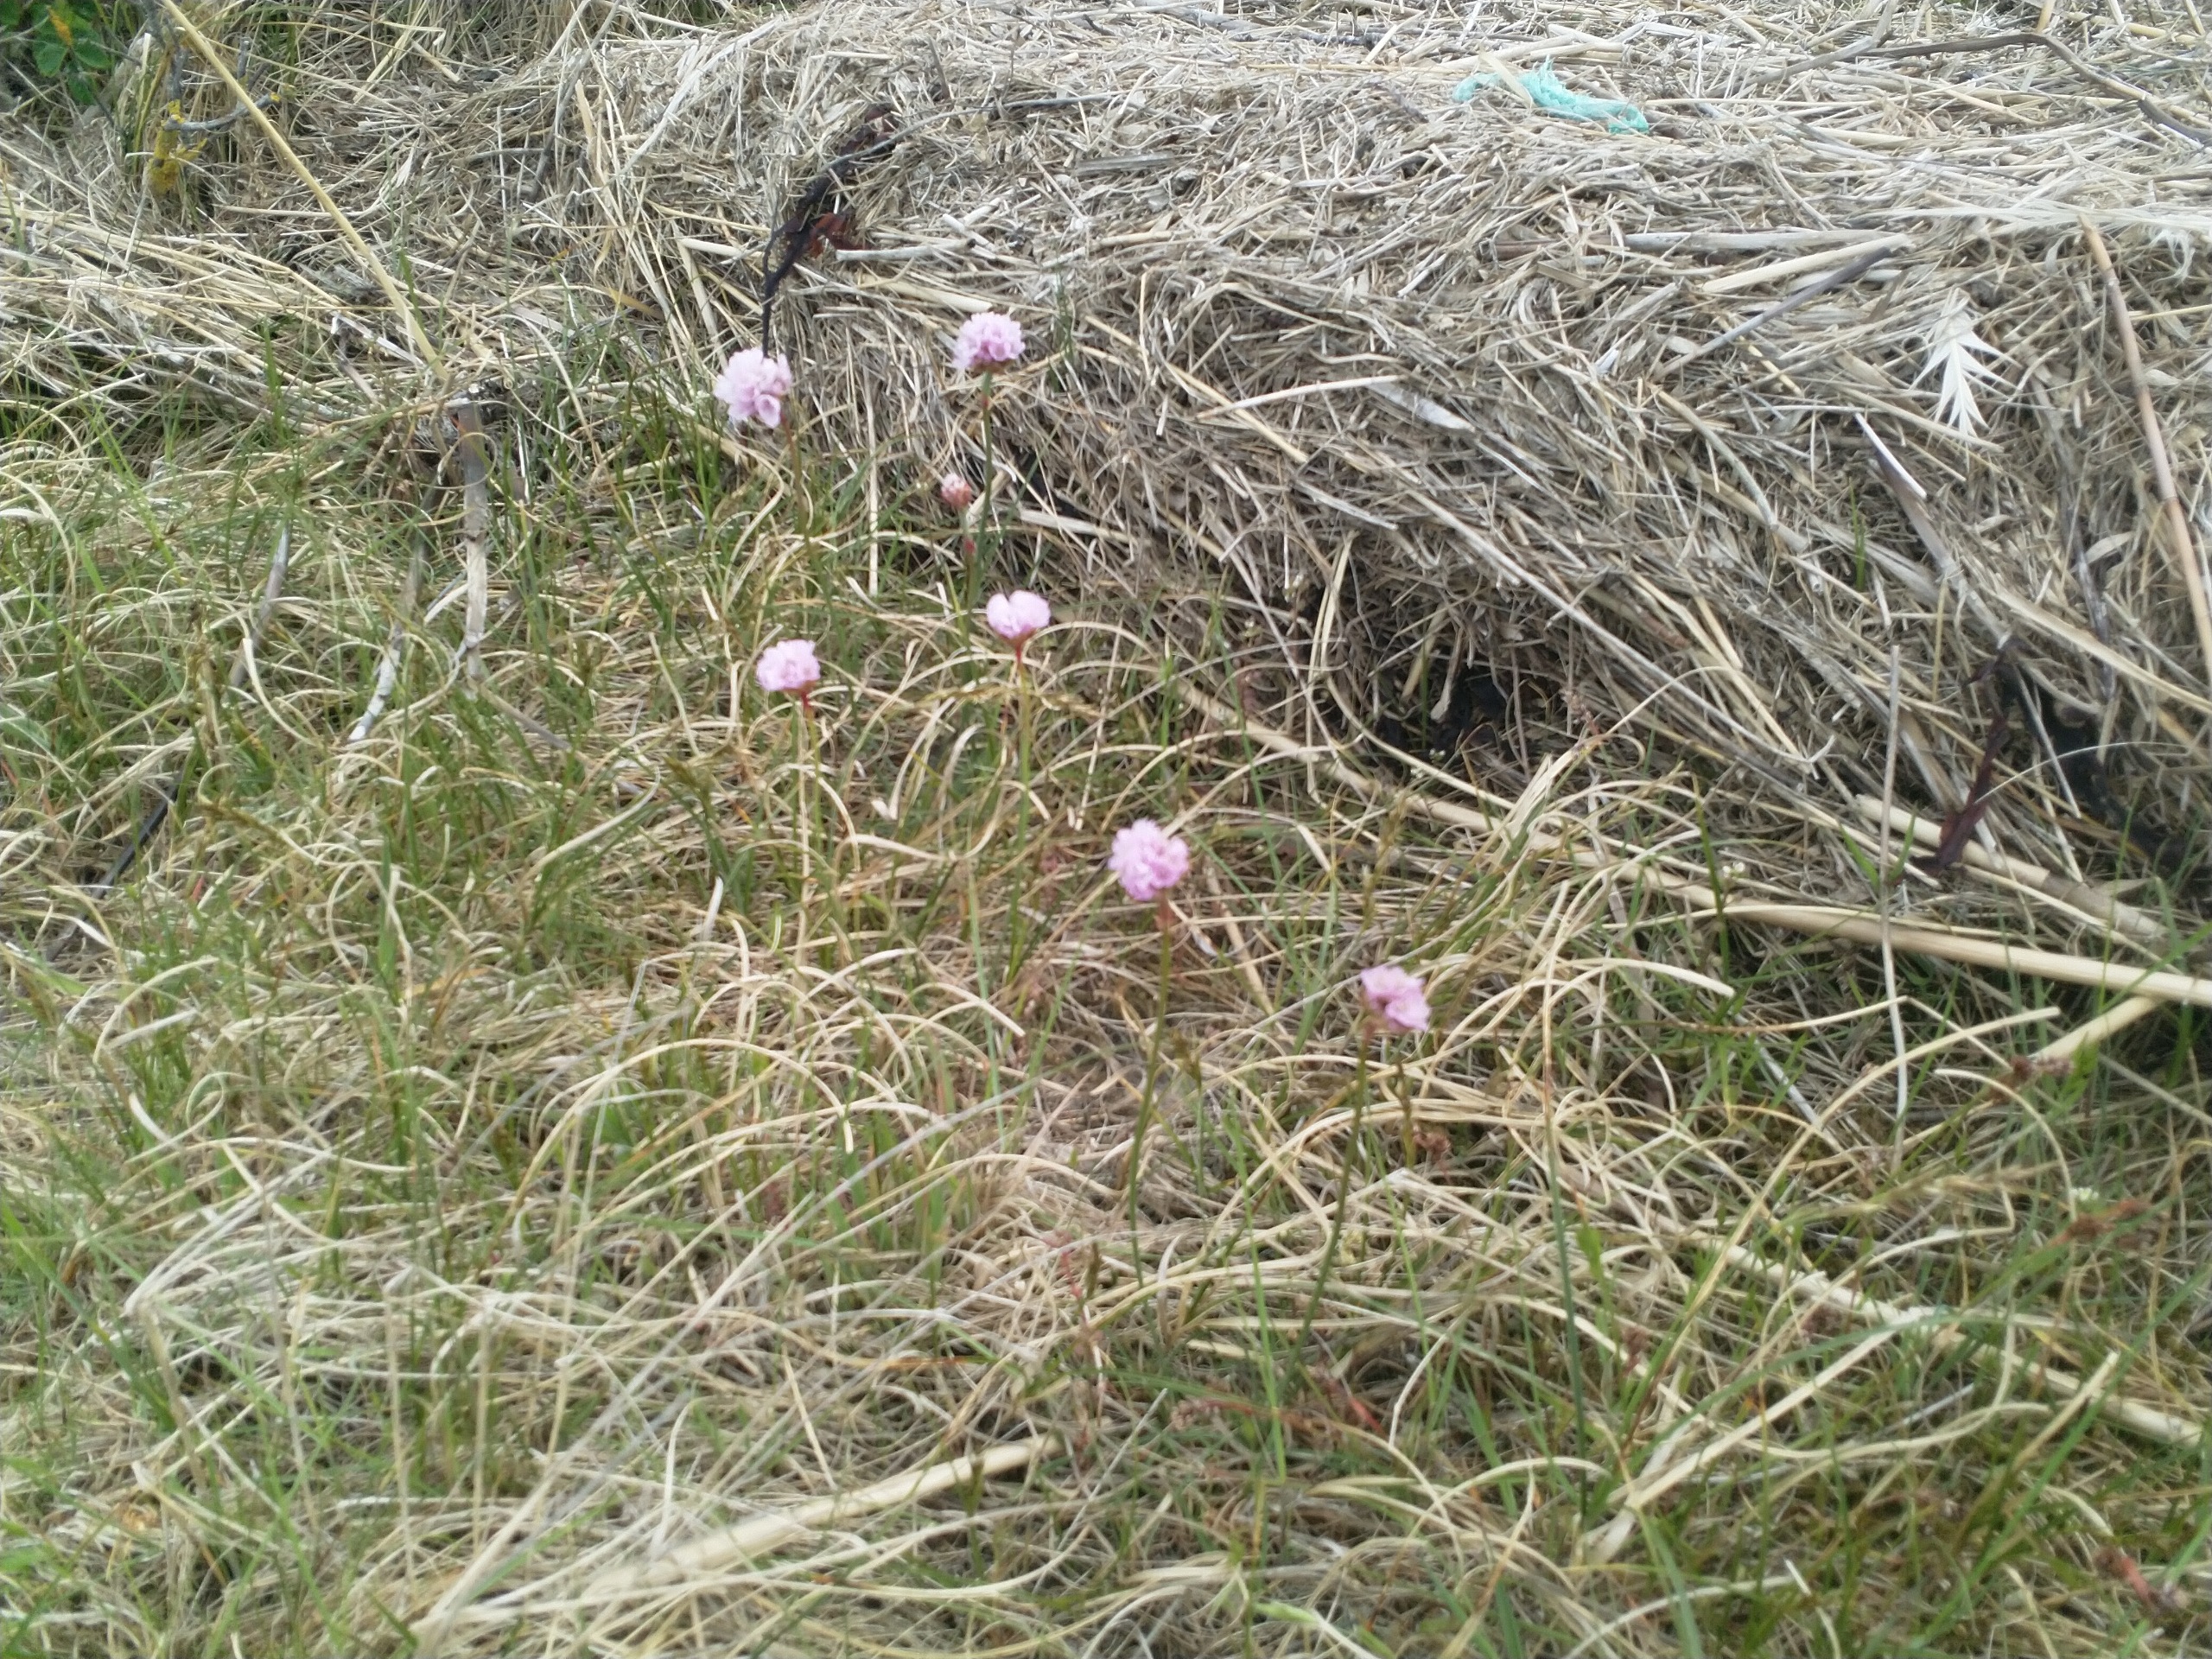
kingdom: Plantae
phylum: Tracheophyta
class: Magnoliopsida
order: Caryophyllales
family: Plumbaginaceae
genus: Armeria
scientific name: Armeria maritima
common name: Engelskgræs
